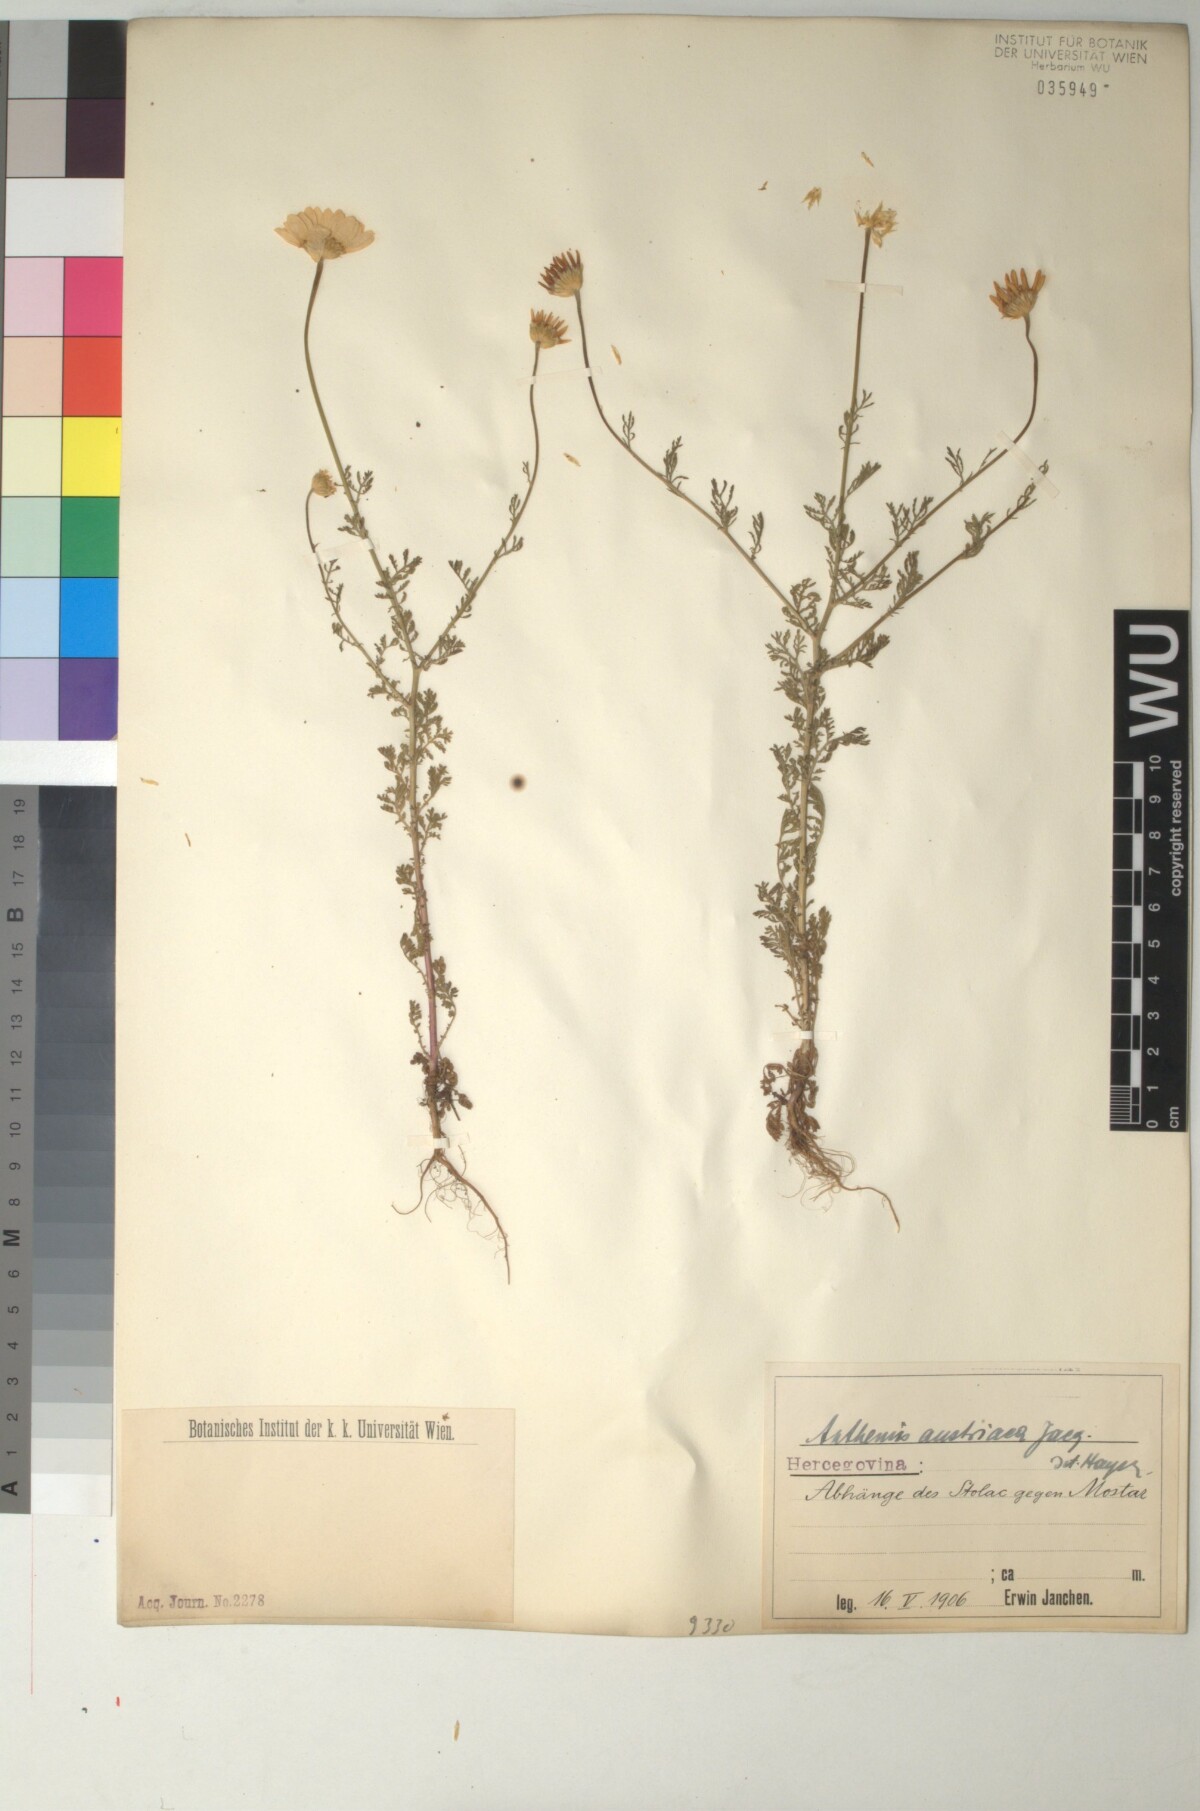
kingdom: Plantae
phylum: Tracheophyta
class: Magnoliopsida
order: Asterales
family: Asteraceae
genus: Cota
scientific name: Cota austriaca
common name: Austrian chamomile
